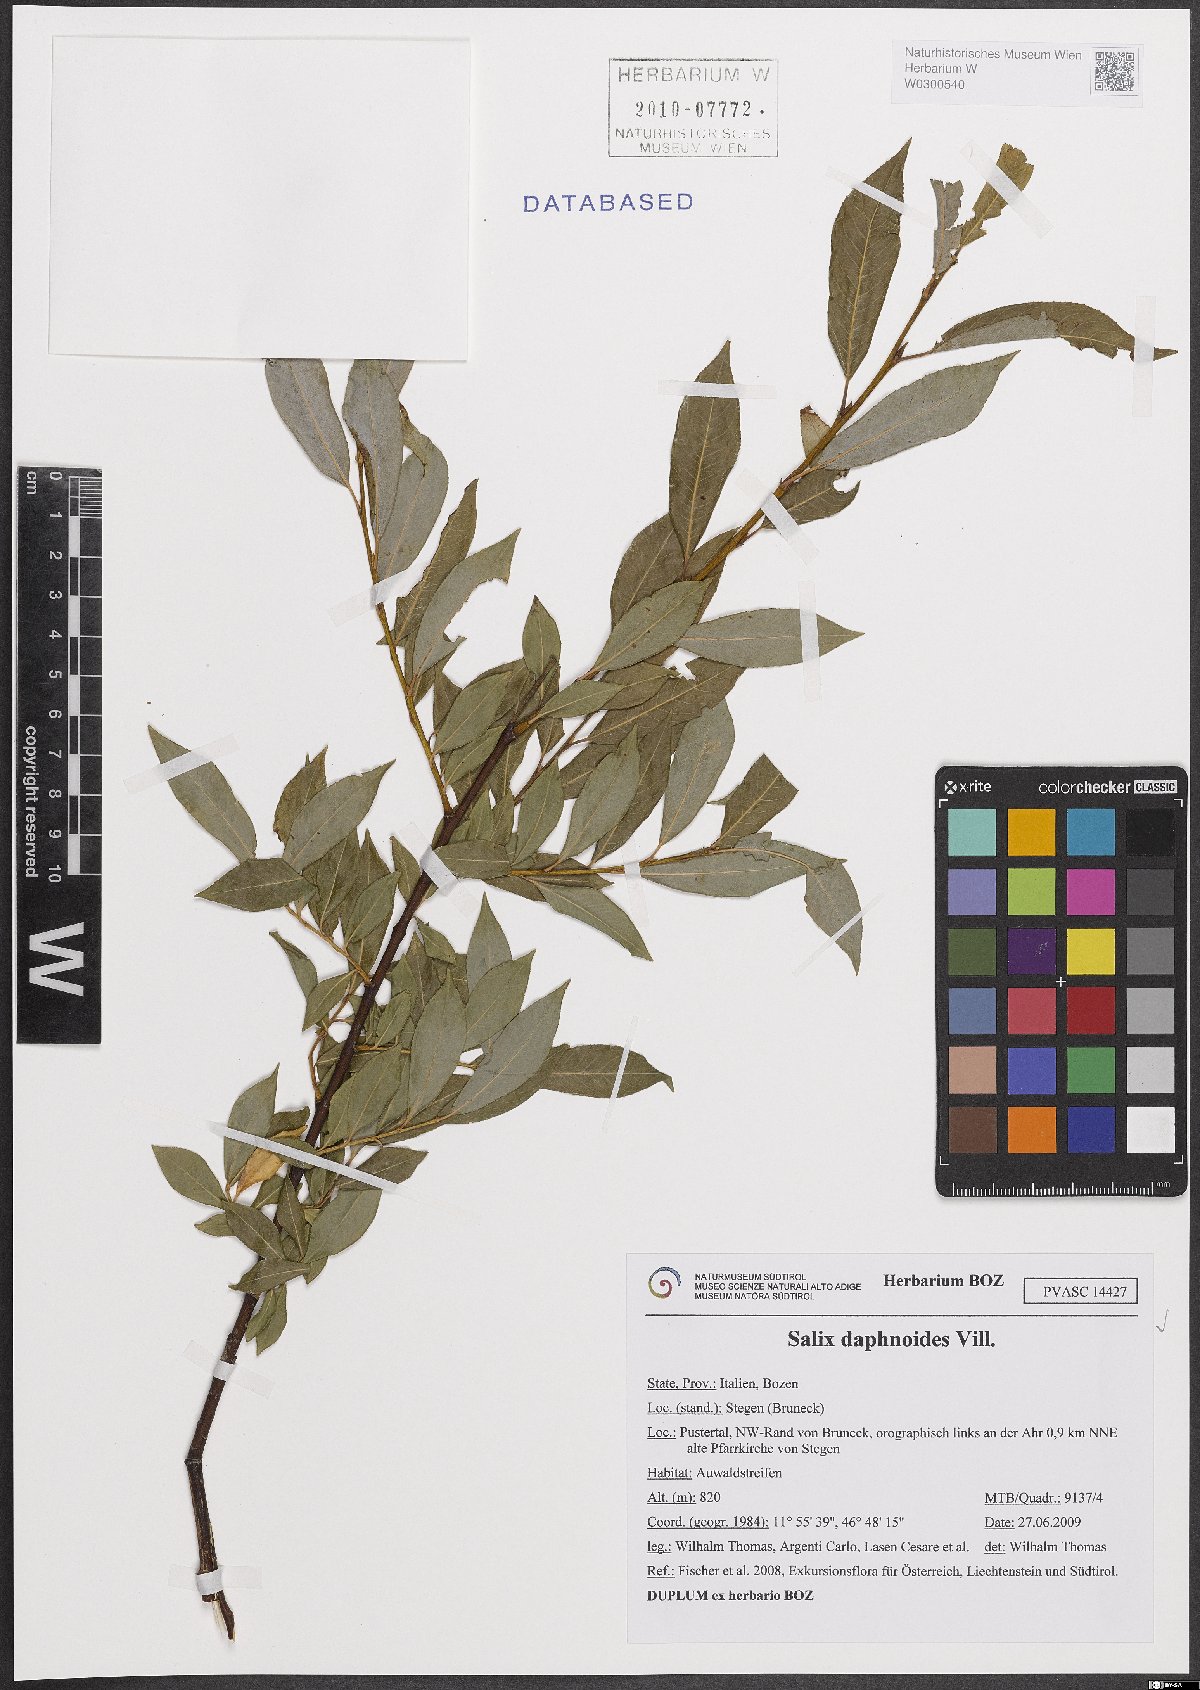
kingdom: Plantae
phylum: Tracheophyta
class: Magnoliopsida
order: Malpighiales
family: Salicaceae
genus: Salix
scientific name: Salix daphnoides
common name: European violet-willow
